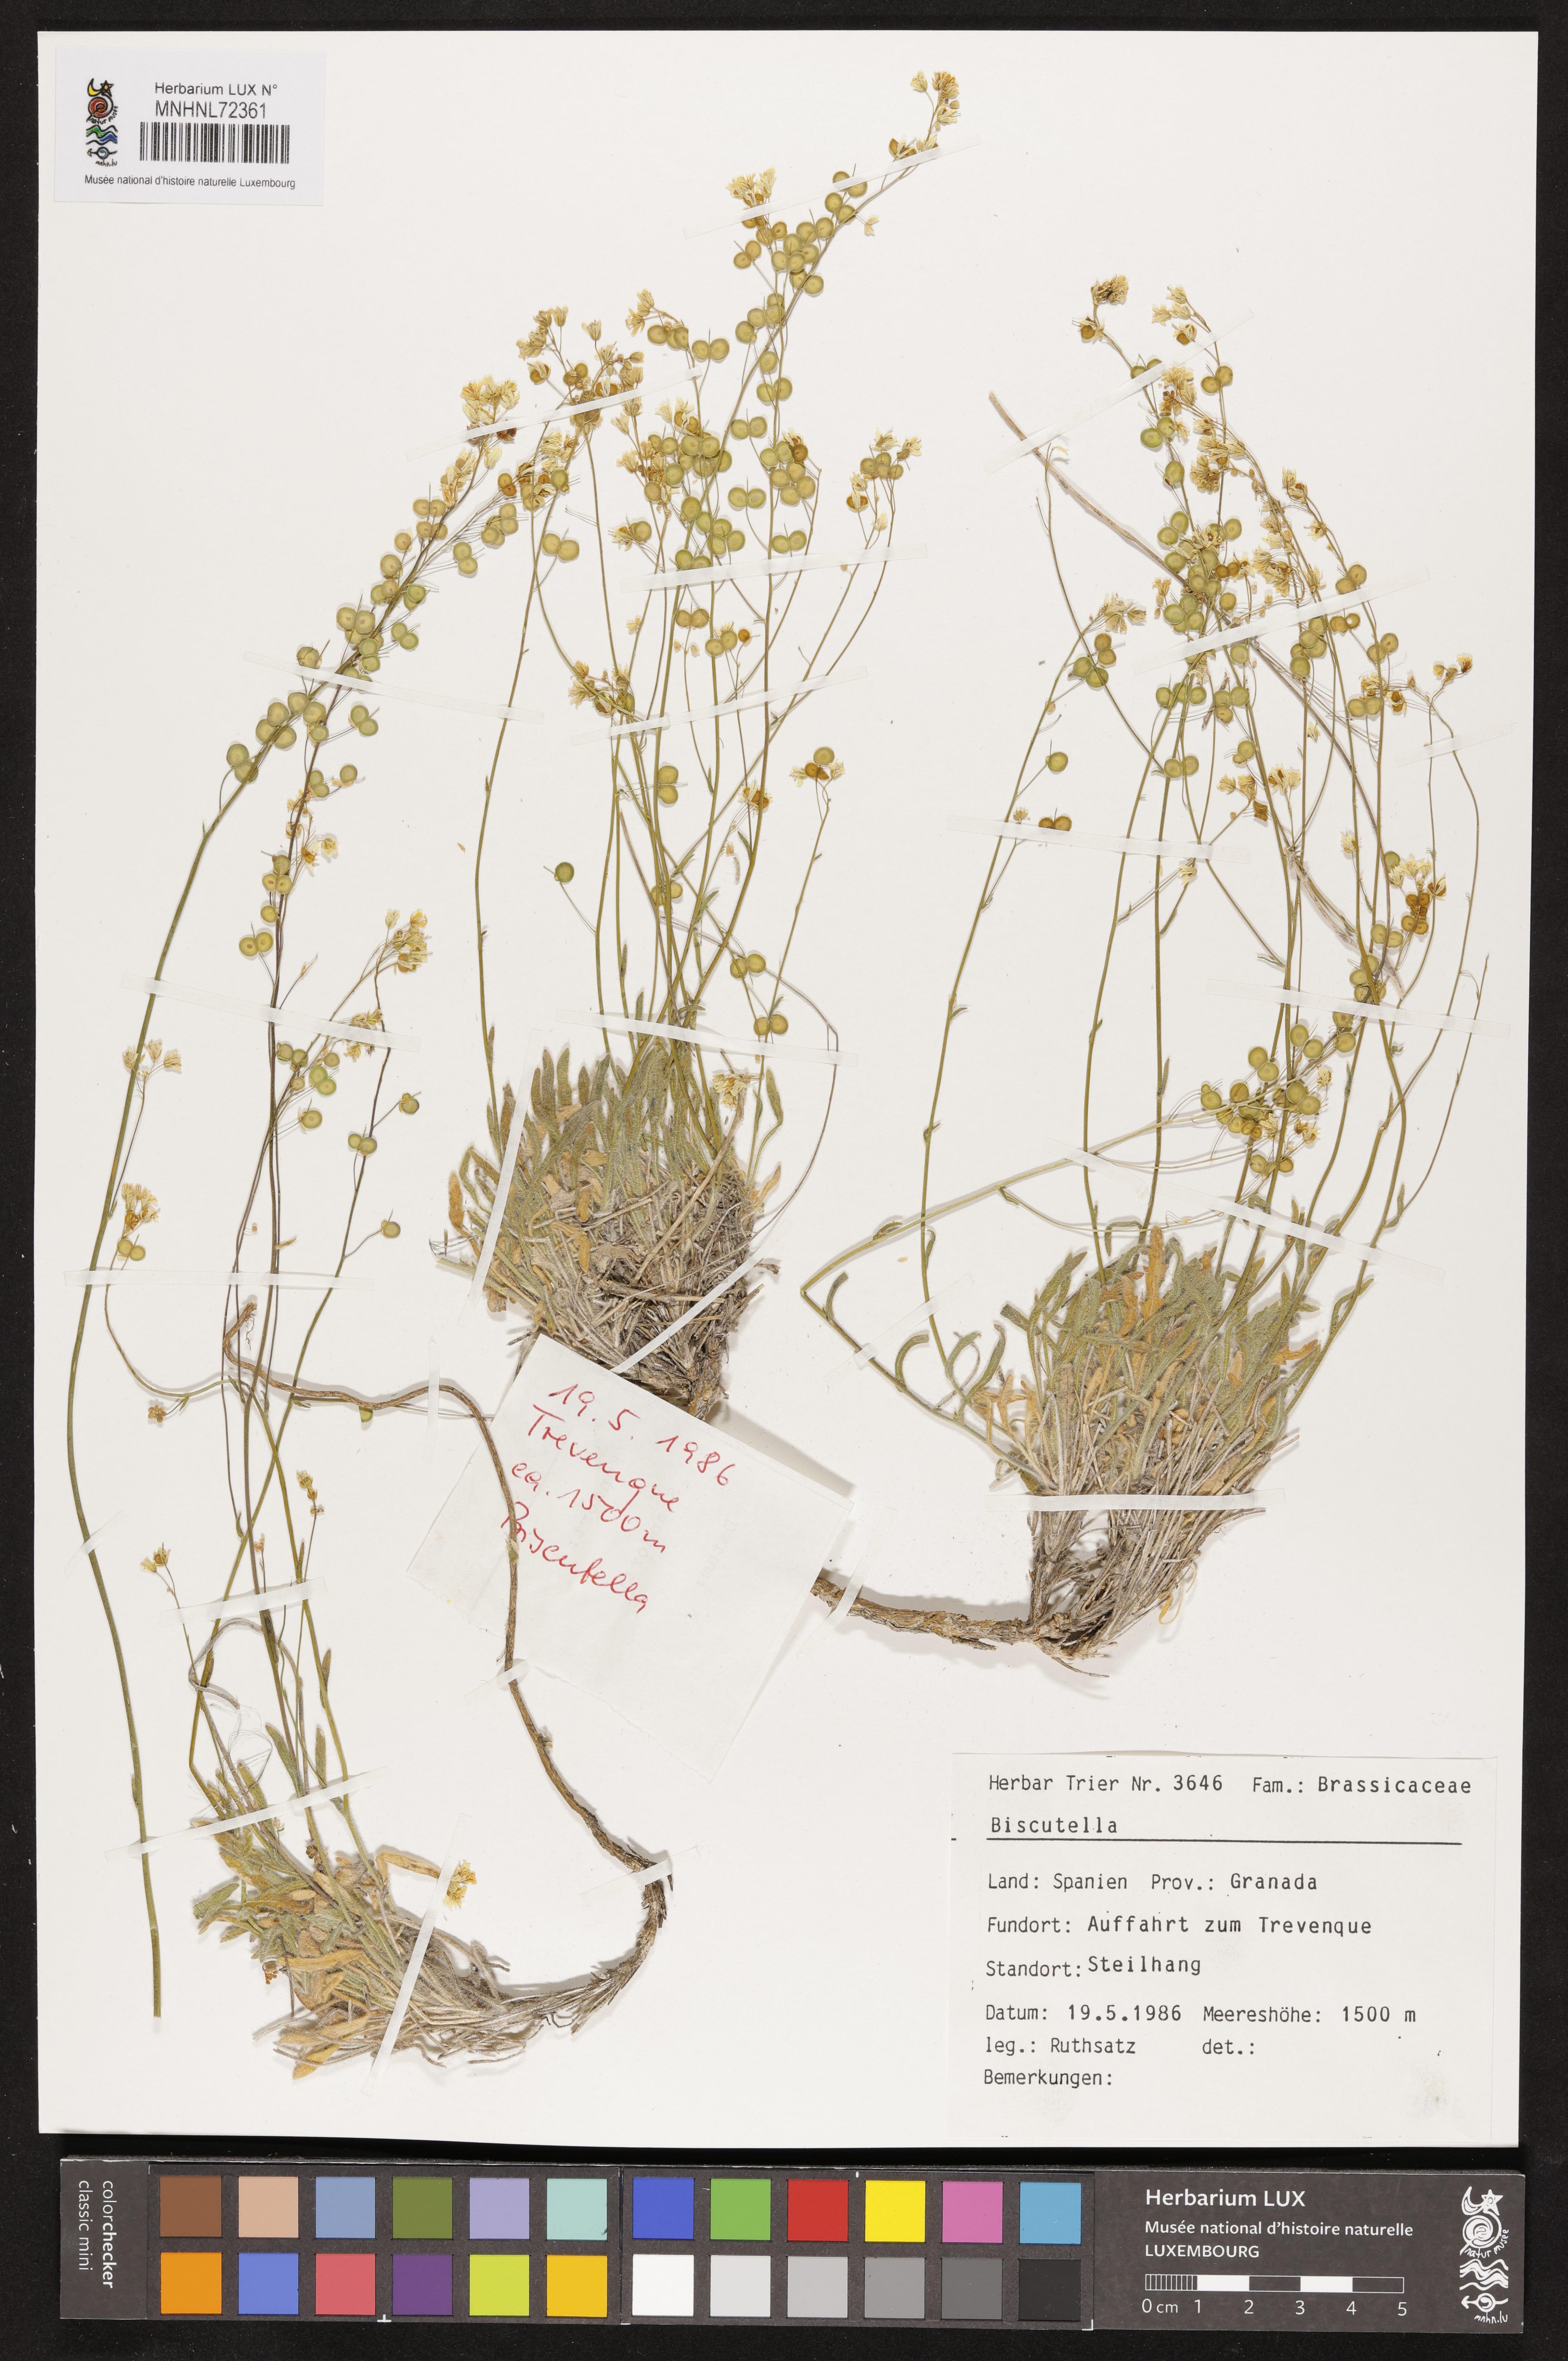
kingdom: Plantae
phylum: Tracheophyta
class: Magnoliopsida
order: Brassicales
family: Brassicaceae
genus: Biscutella
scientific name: Biscutella
